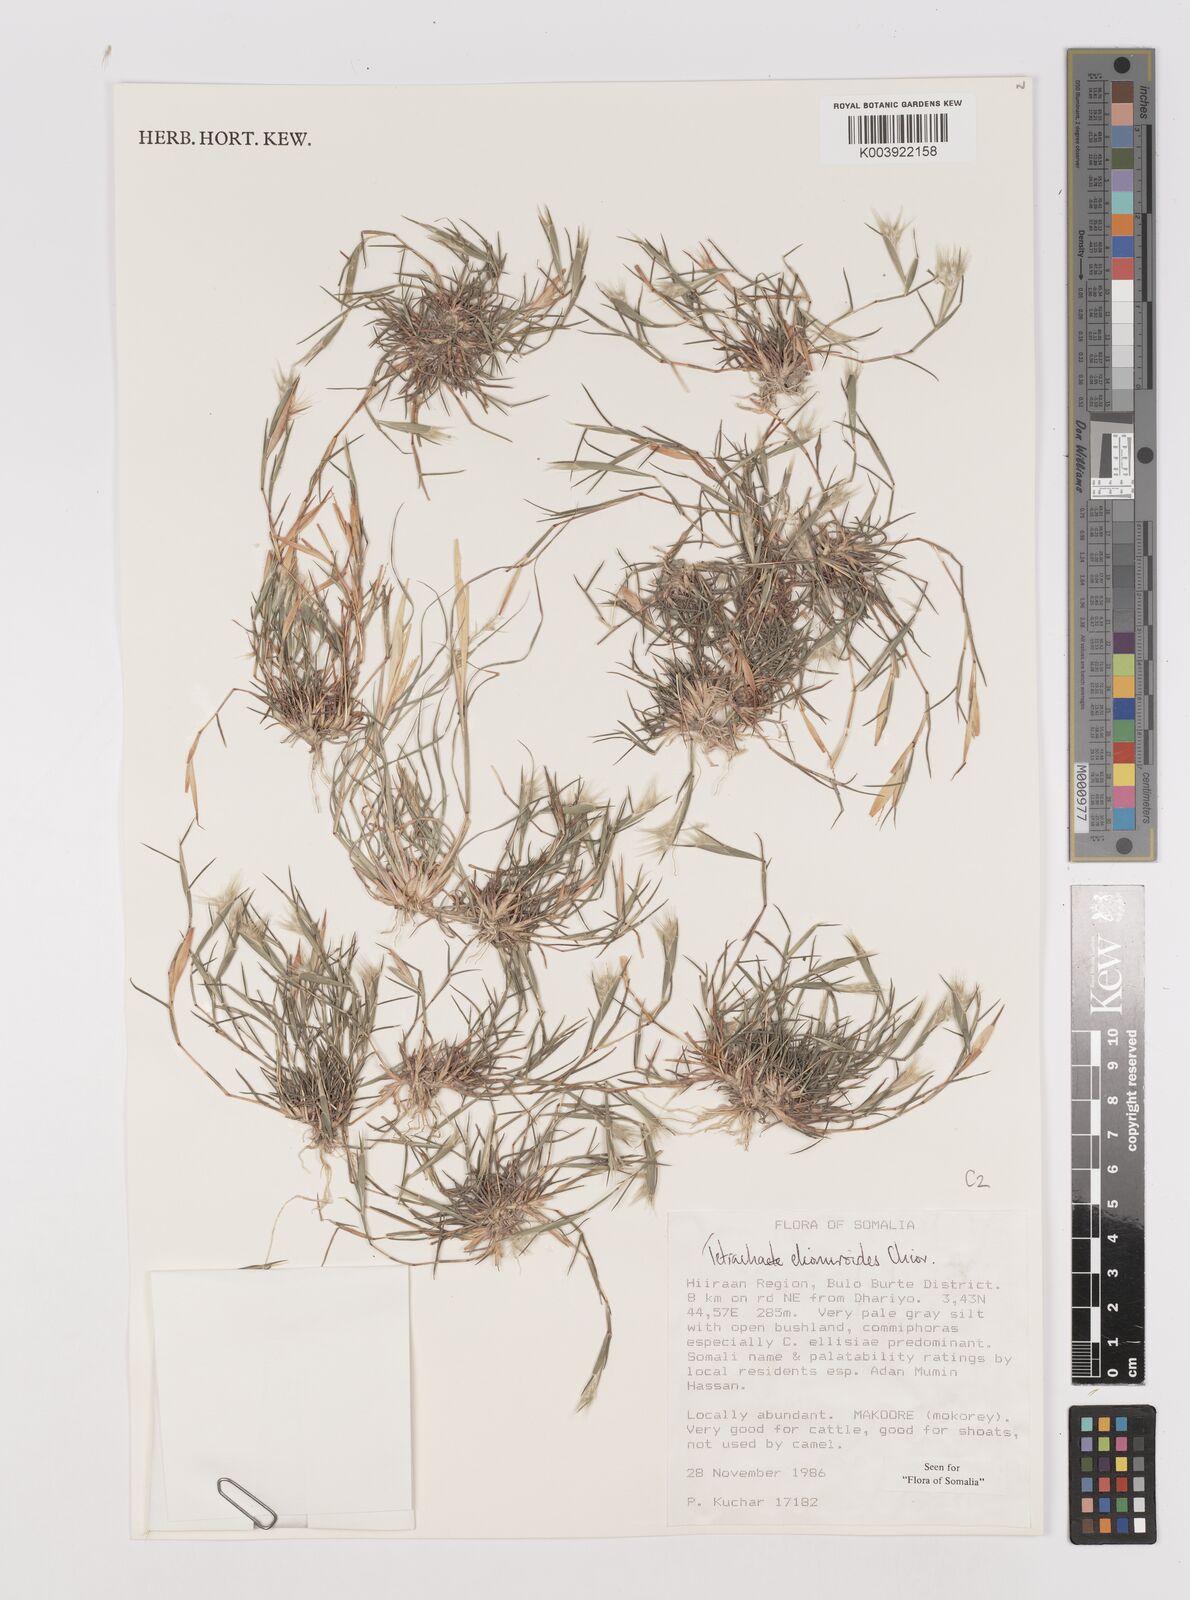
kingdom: Plantae
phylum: Tracheophyta
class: Liliopsida
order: Poales
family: Poaceae
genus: Tetrachaete
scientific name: Tetrachaete elionuroides
